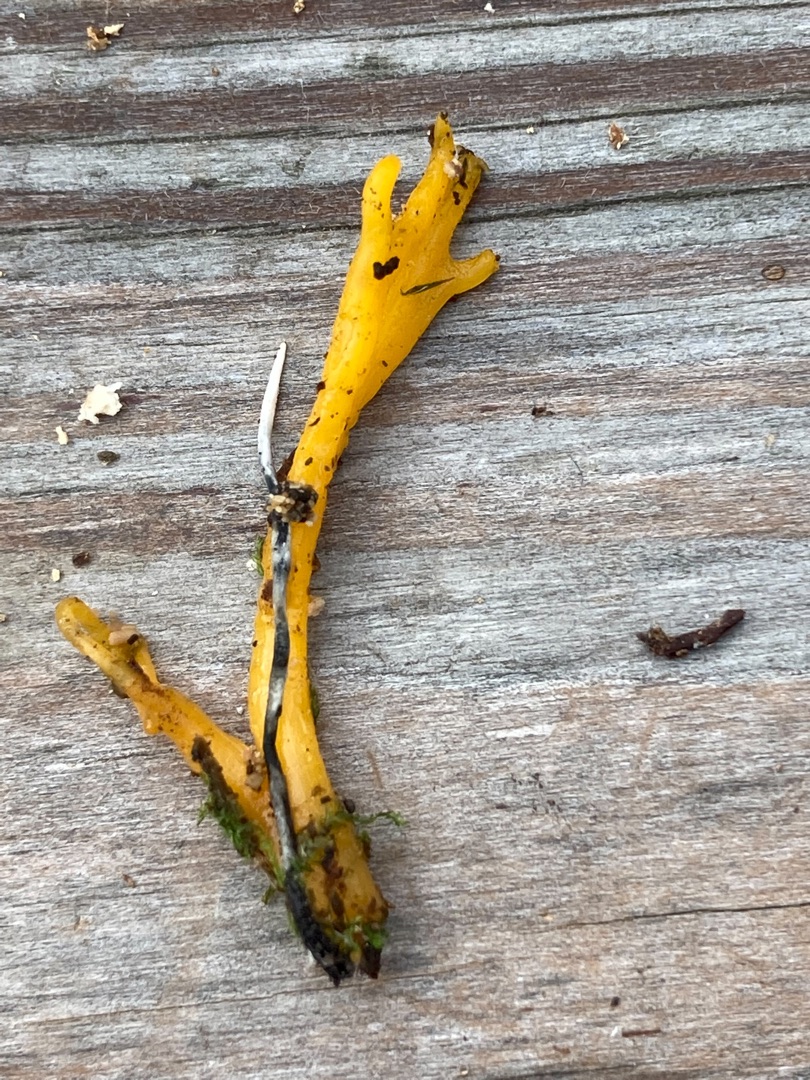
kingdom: Fungi
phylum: Basidiomycota
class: Dacrymycetes
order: Dacrymycetales
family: Dacrymycetaceae
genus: Calocera
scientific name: Calocera viscosa
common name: Almindelig guldgaffel
